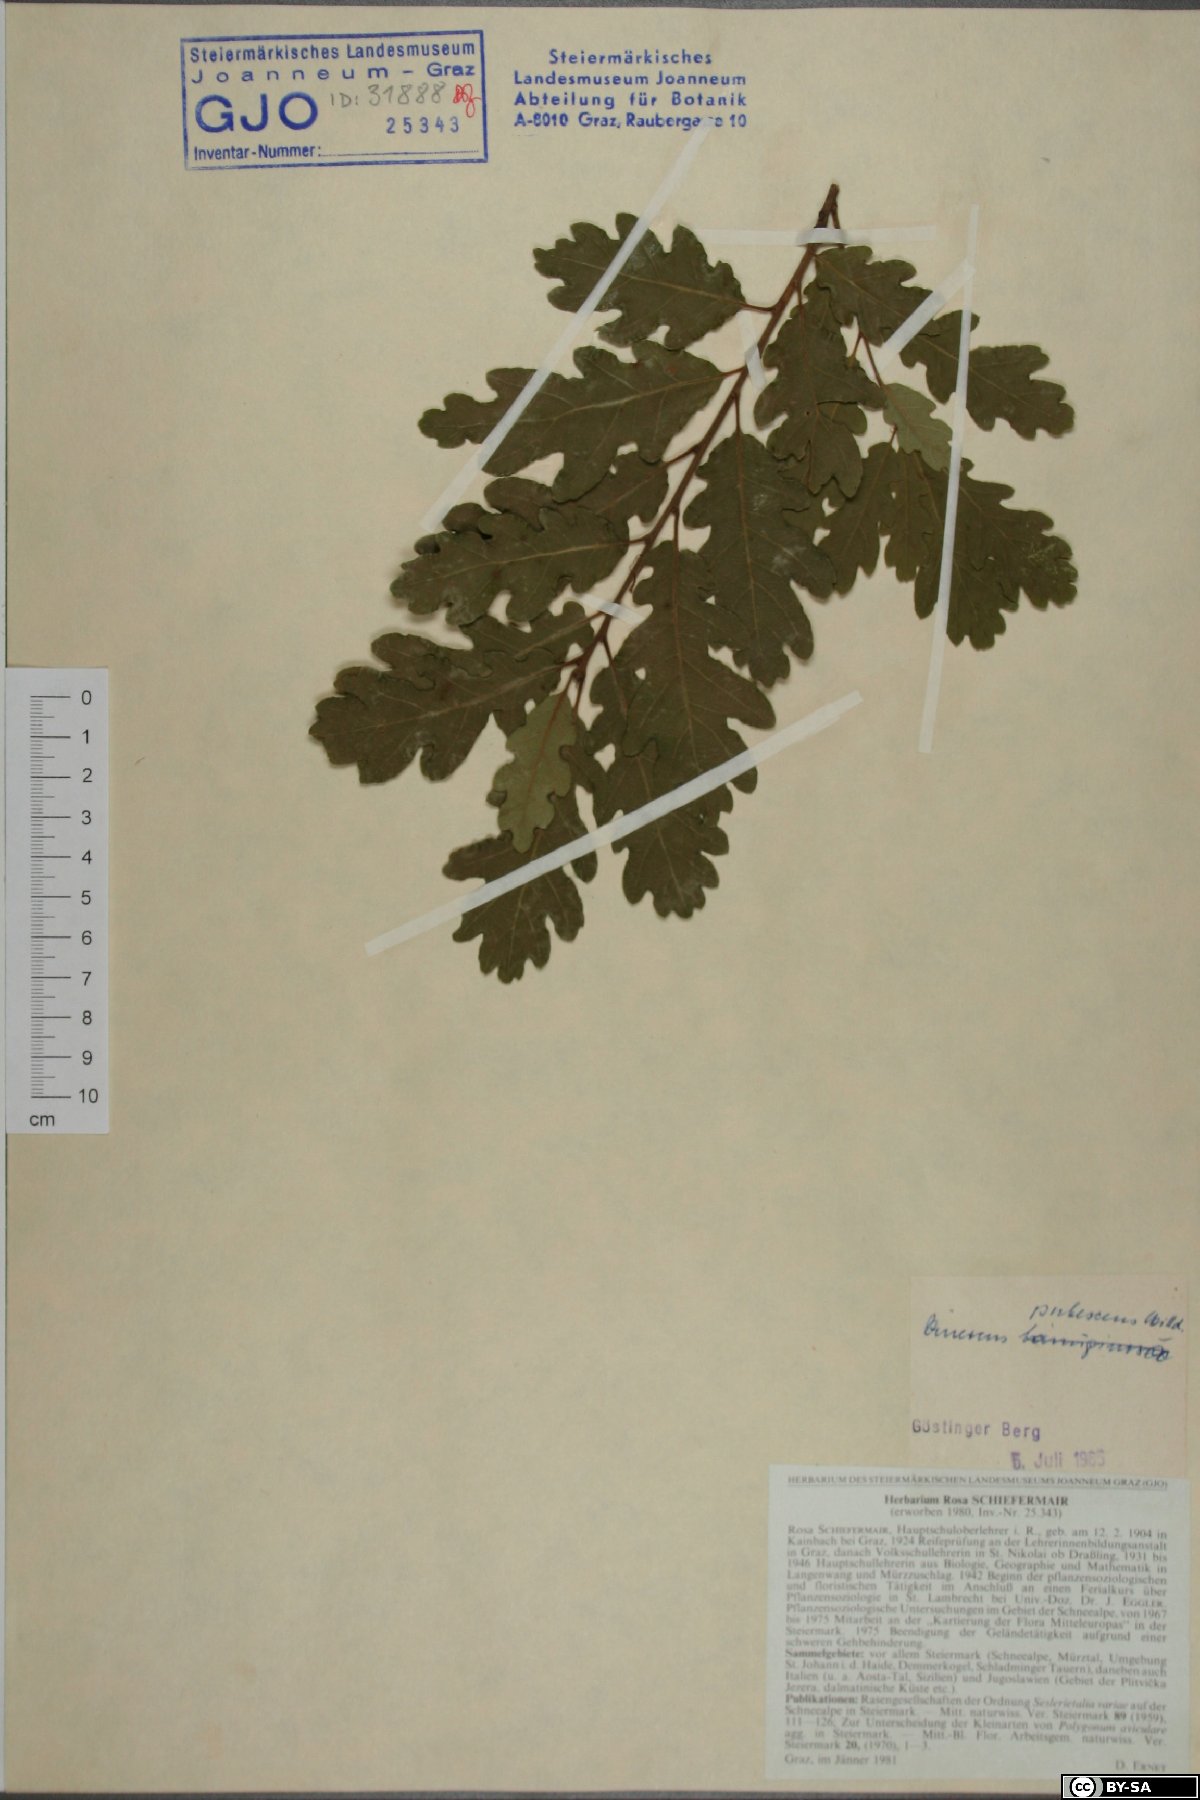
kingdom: Plantae
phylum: Tracheophyta
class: Magnoliopsida
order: Fagales
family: Fagaceae
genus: Quercus
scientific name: Quercus pubescens
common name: Downy oak
